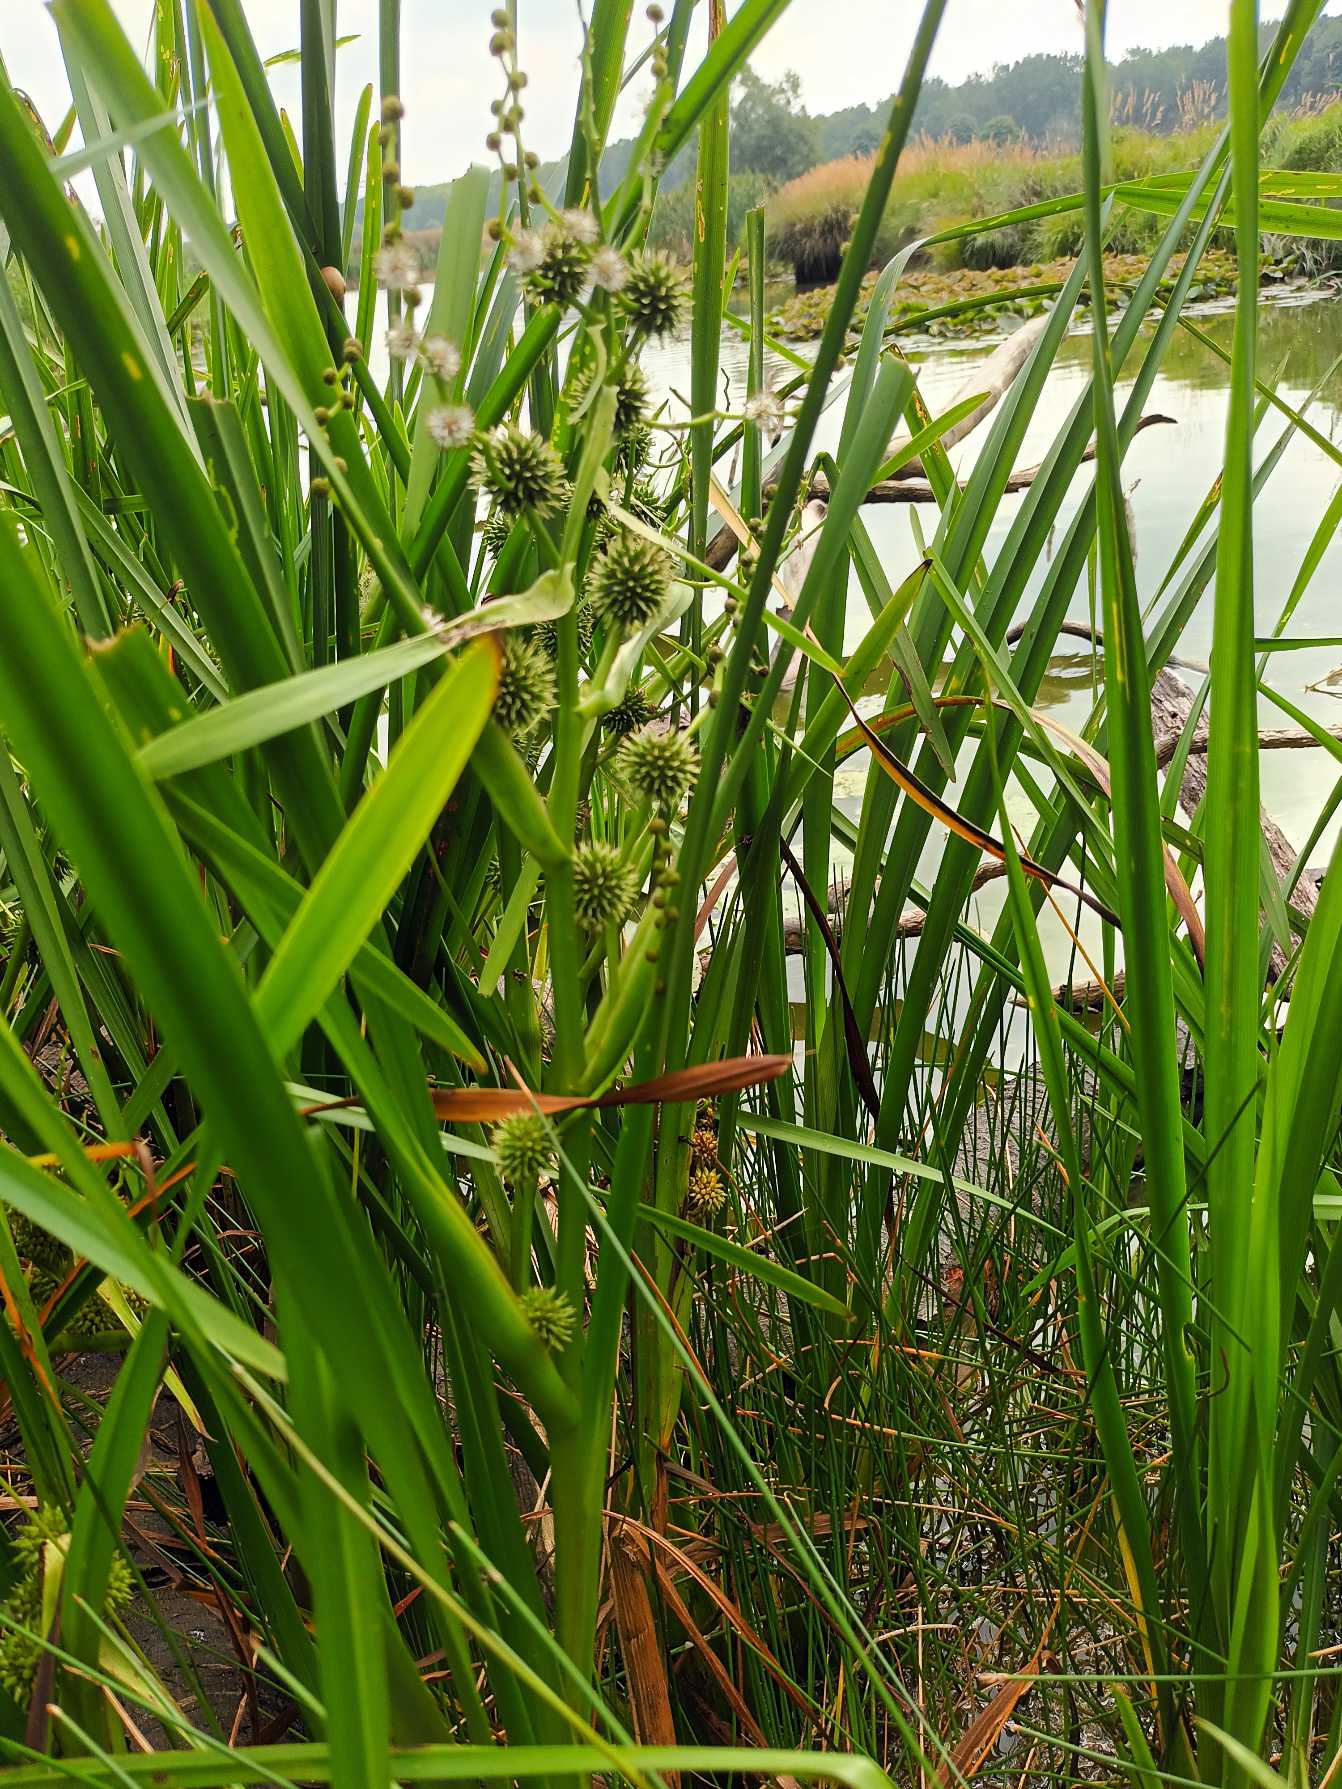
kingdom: Plantae
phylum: Tracheophyta
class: Liliopsida
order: Poales
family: Typhaceae
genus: Sparganium
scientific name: Sparganium erectum
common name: Sodfarvet pindsvineknop
